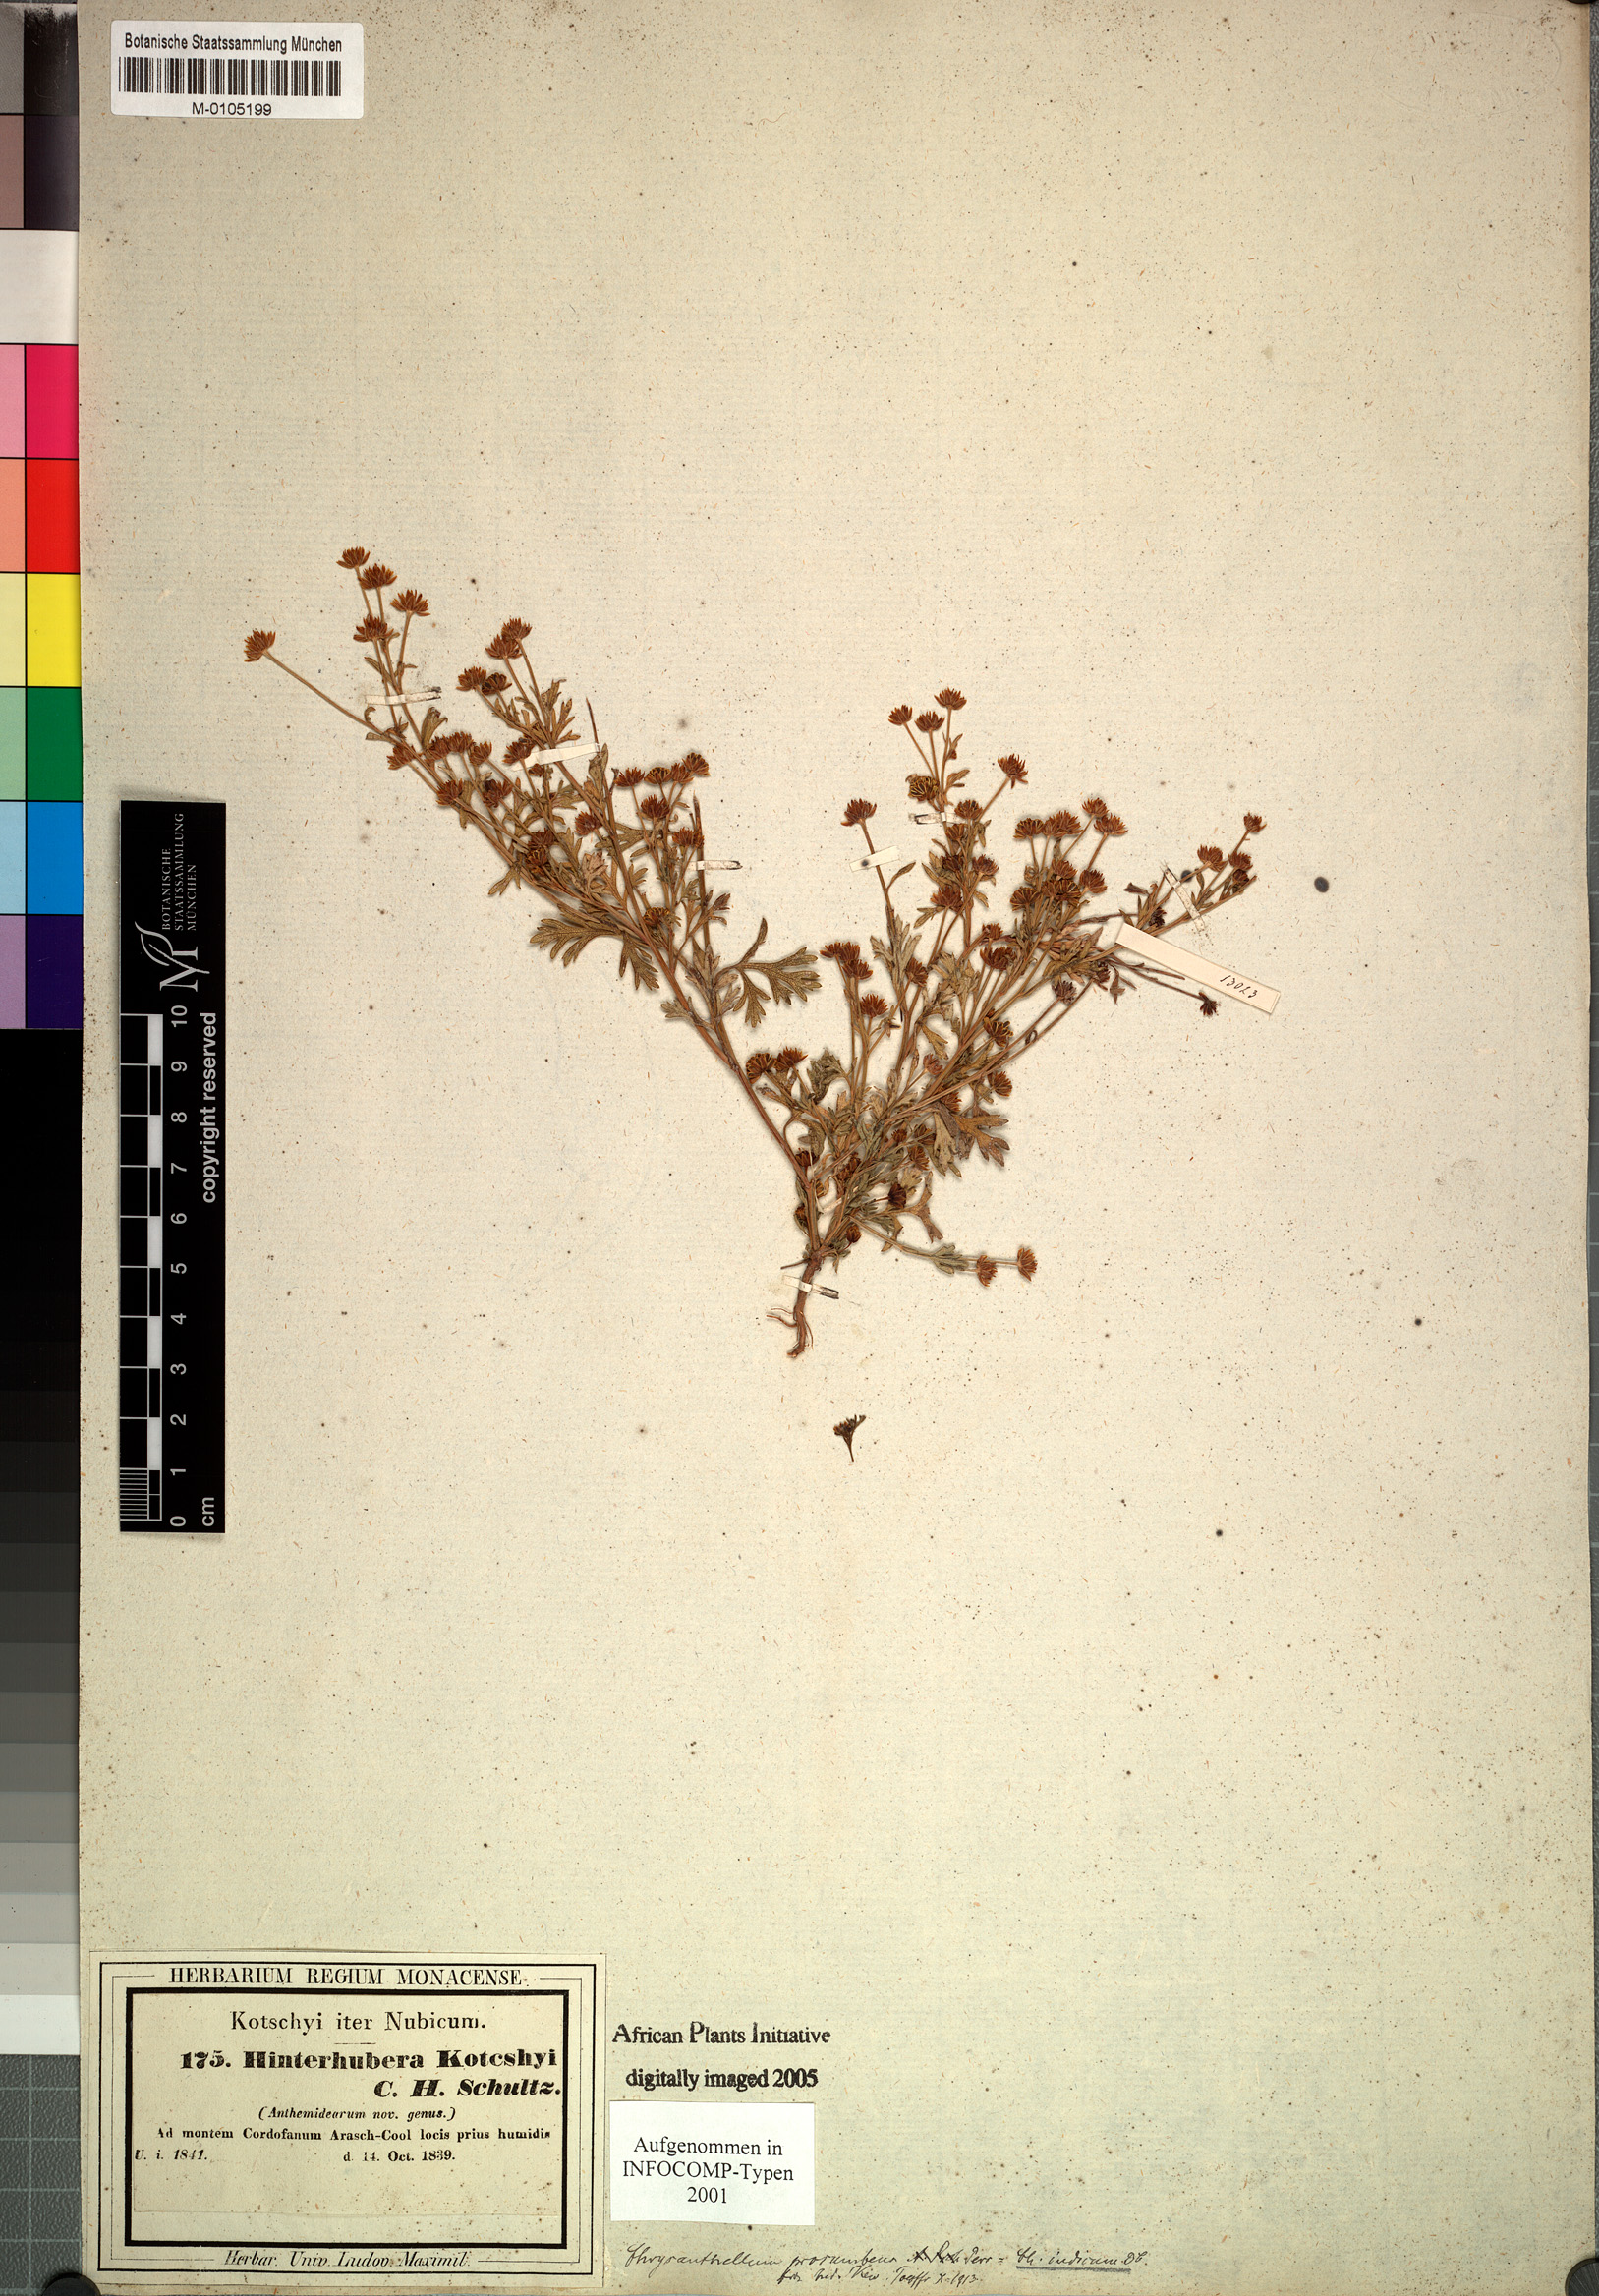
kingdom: Plantae
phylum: Tracheophyta
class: Magnoliopsida
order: Asterales
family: Asteraceae
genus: Chrysanthellum
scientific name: Chrysanthellum americanum
